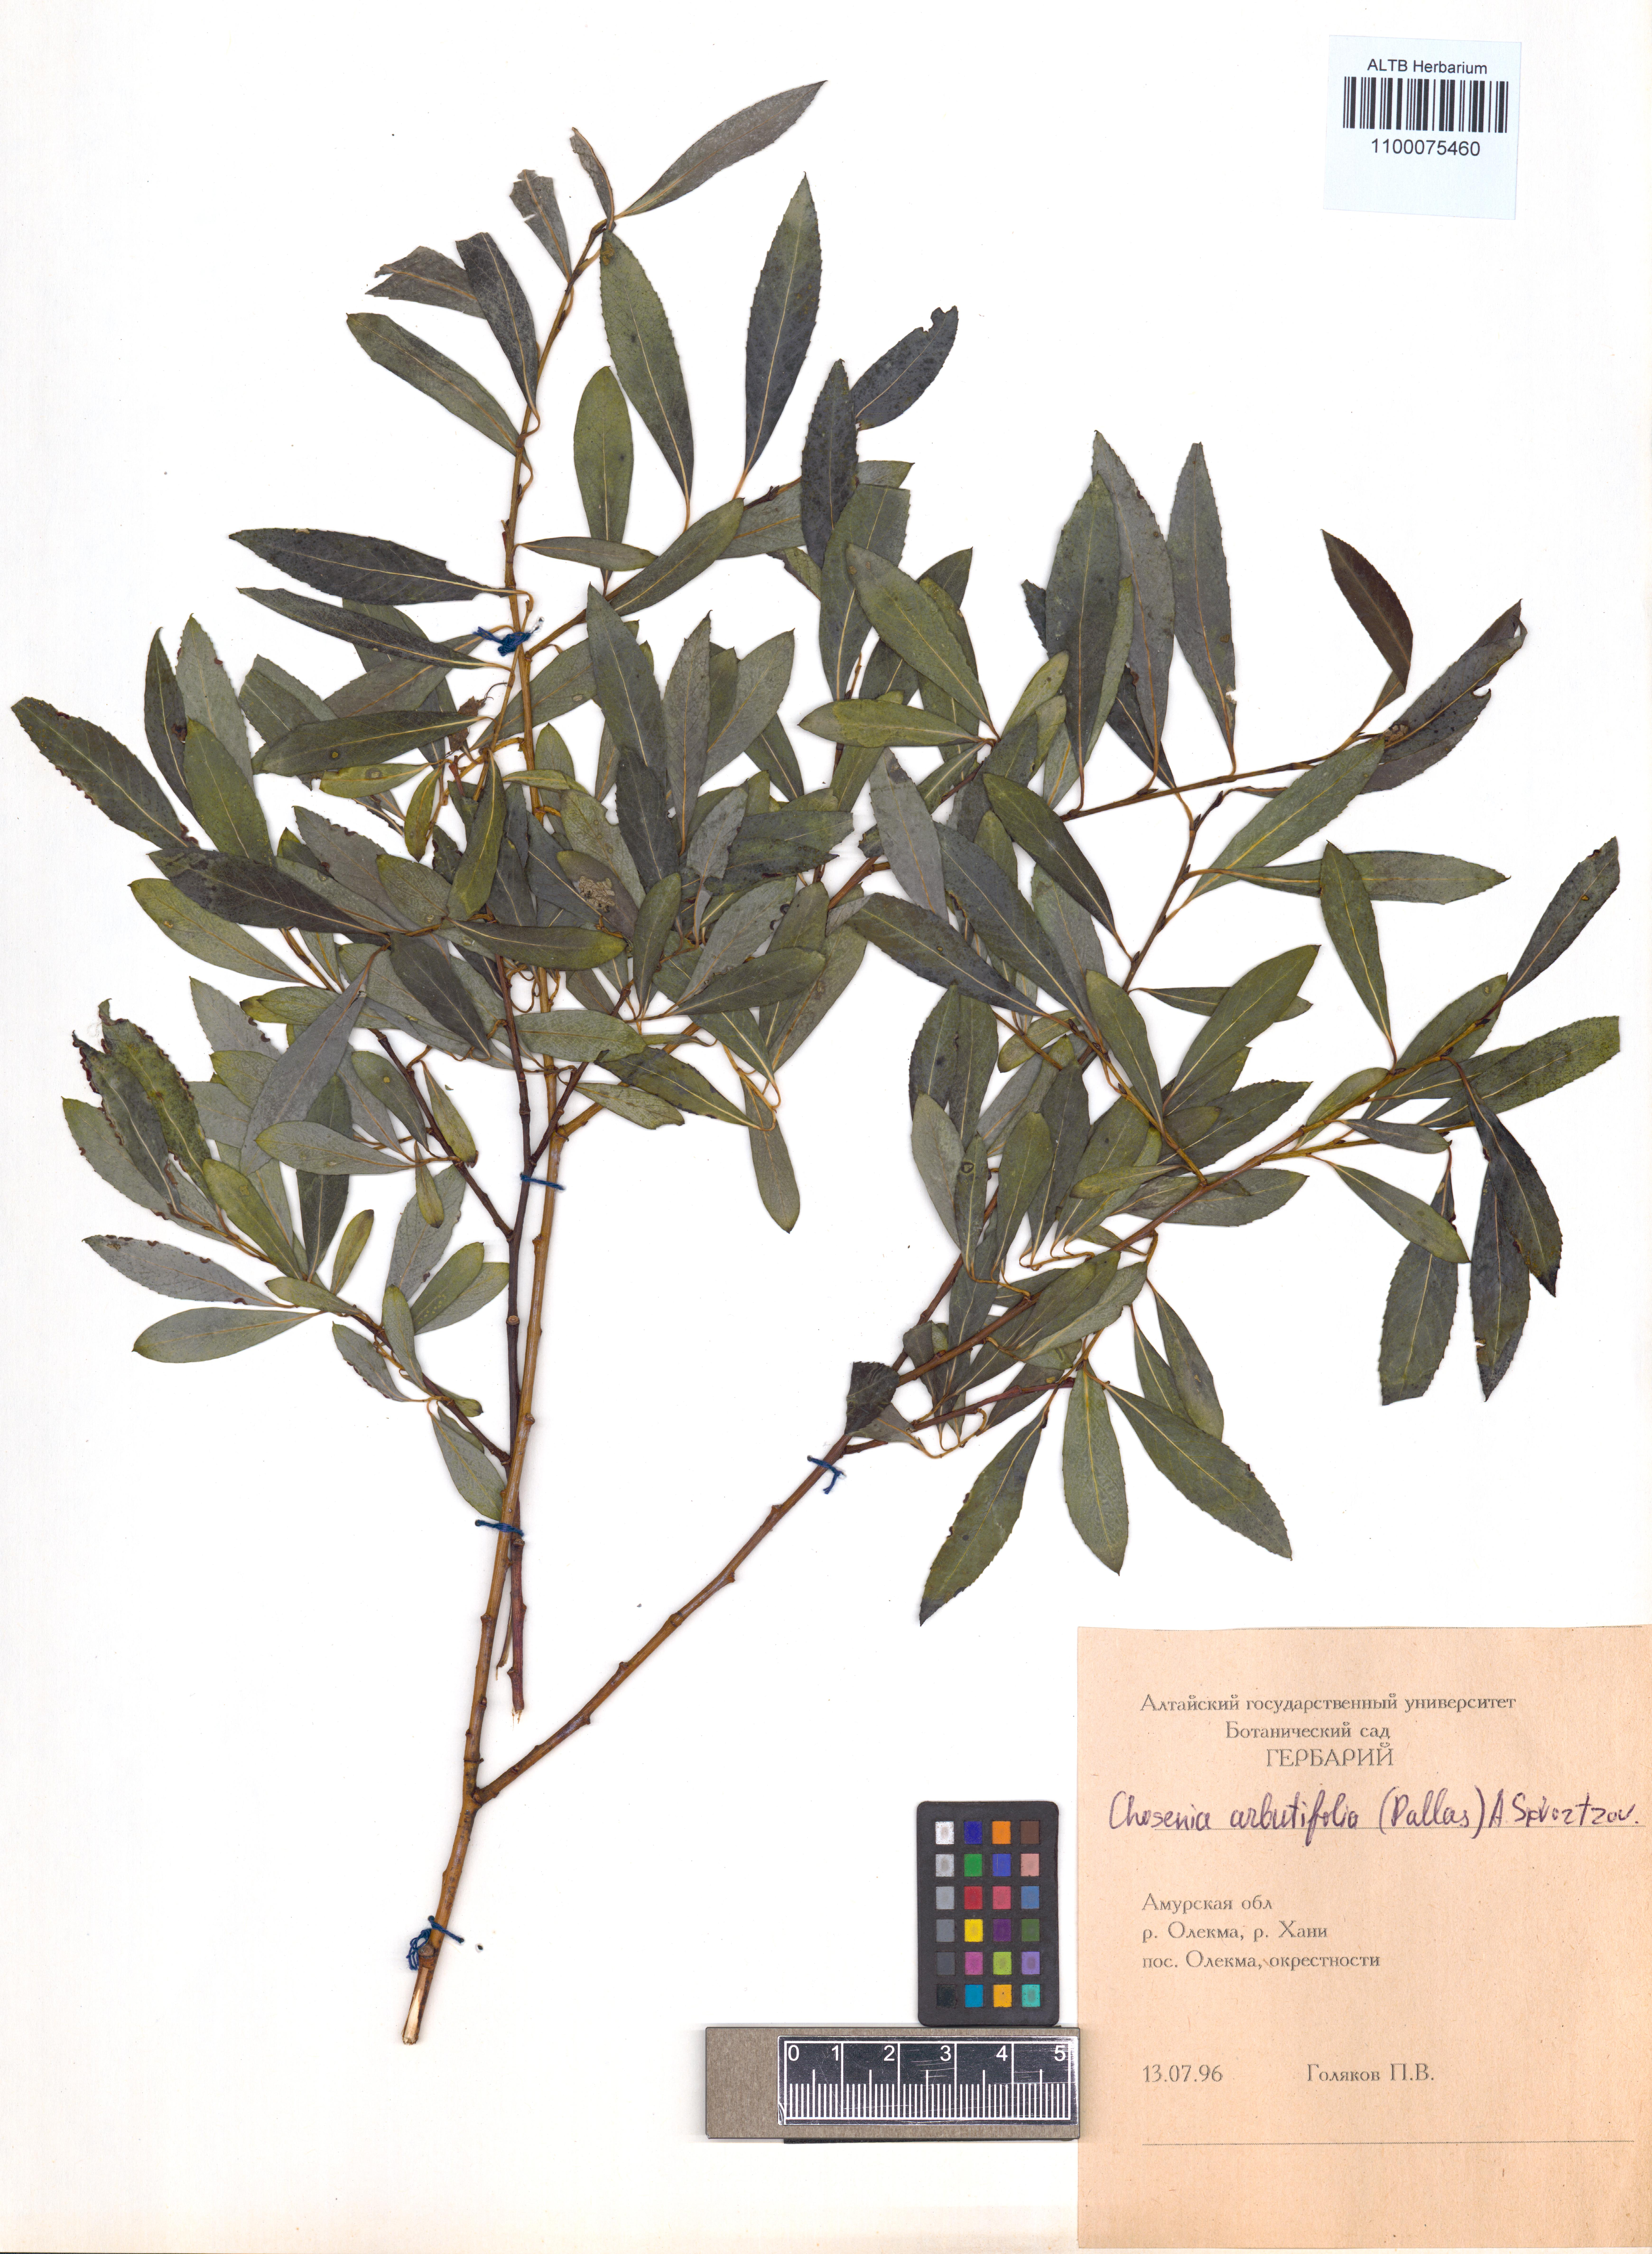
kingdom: Plantae
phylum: Tracheophyta
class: Magnoliopsida
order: Malpighiales
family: Salicaceae
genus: Chosenia
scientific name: Chosenia arbutifolia
